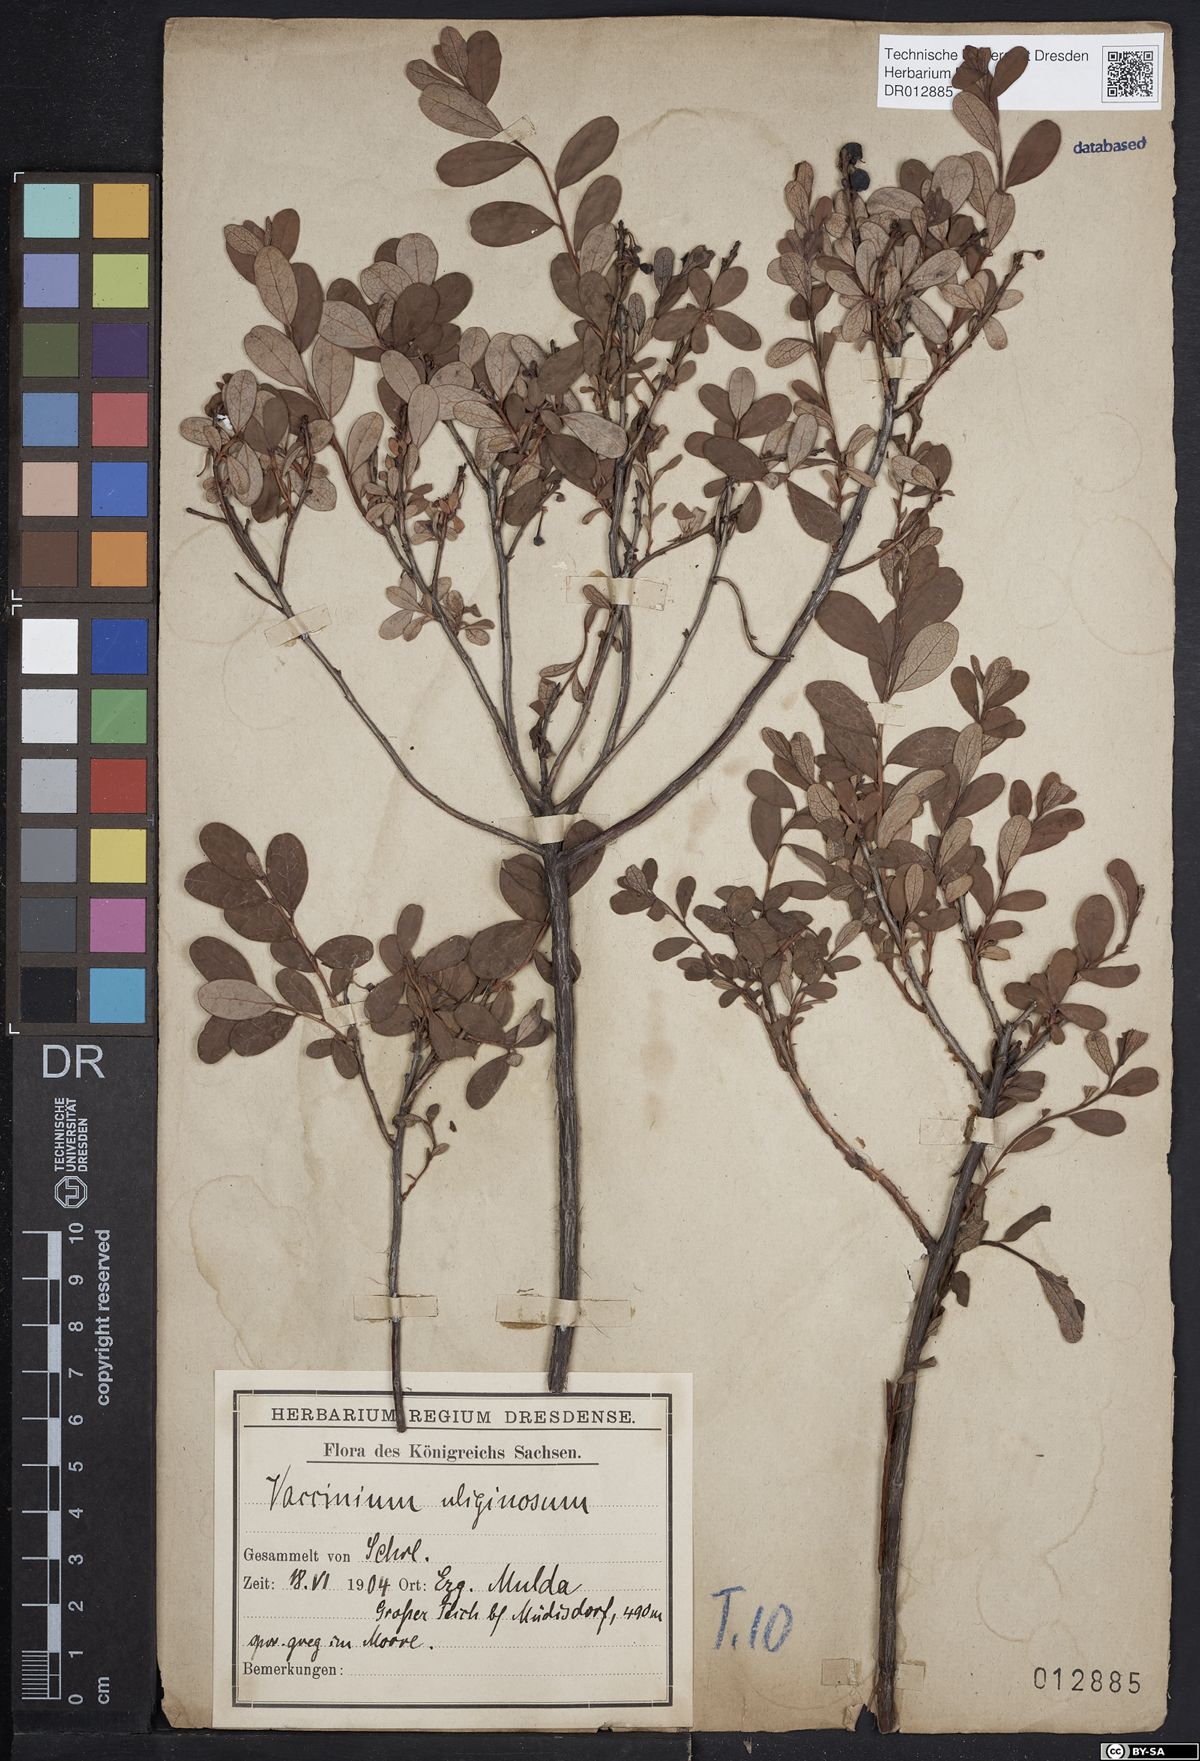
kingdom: Plantae
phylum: Tracheophyta
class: Magnoliopsida
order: Ericales
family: Ericaceae
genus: Vaccinium
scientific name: Vaccinium uliginosum
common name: Bog bilberry
